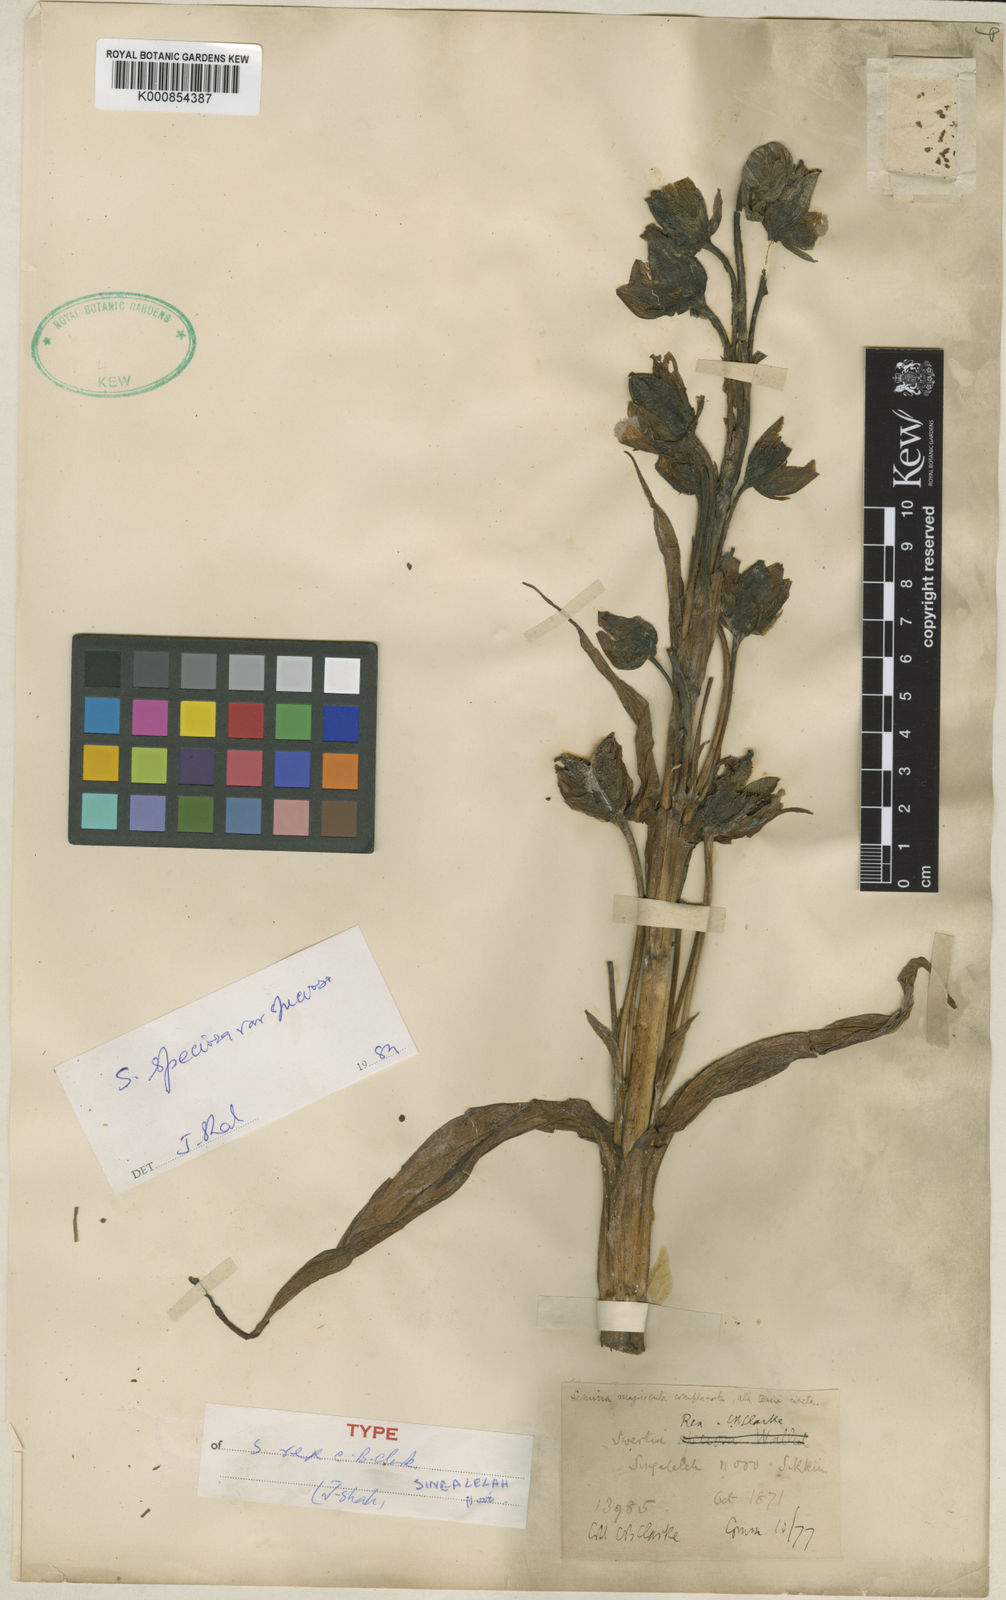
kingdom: Plantae
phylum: Tracheophyta
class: Magnoliopsida
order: Gentianales
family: Gentianaceae
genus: Swertia
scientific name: Swertia
